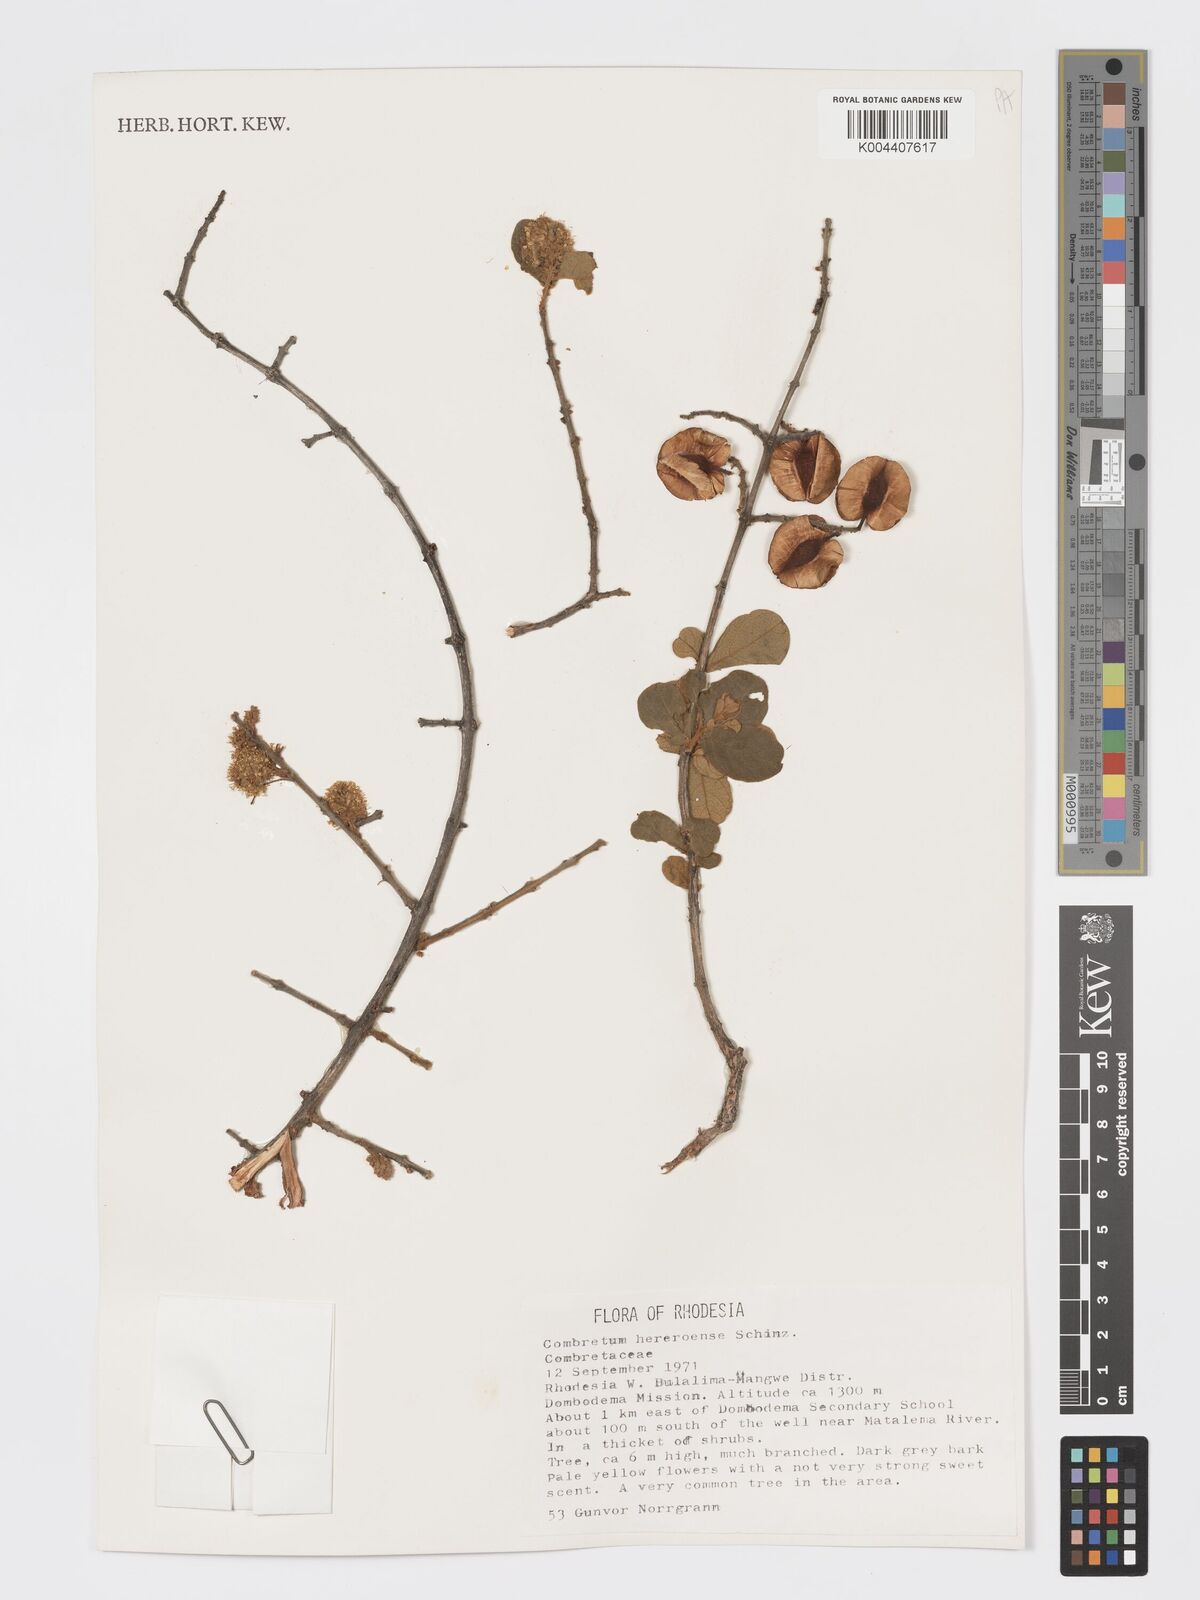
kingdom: Plantae
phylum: Tracheophyta
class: Magnoliopsida
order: Myrtales
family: Combretaceae
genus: Combretum
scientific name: Combretum hereroense
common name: Russet bushwillow
